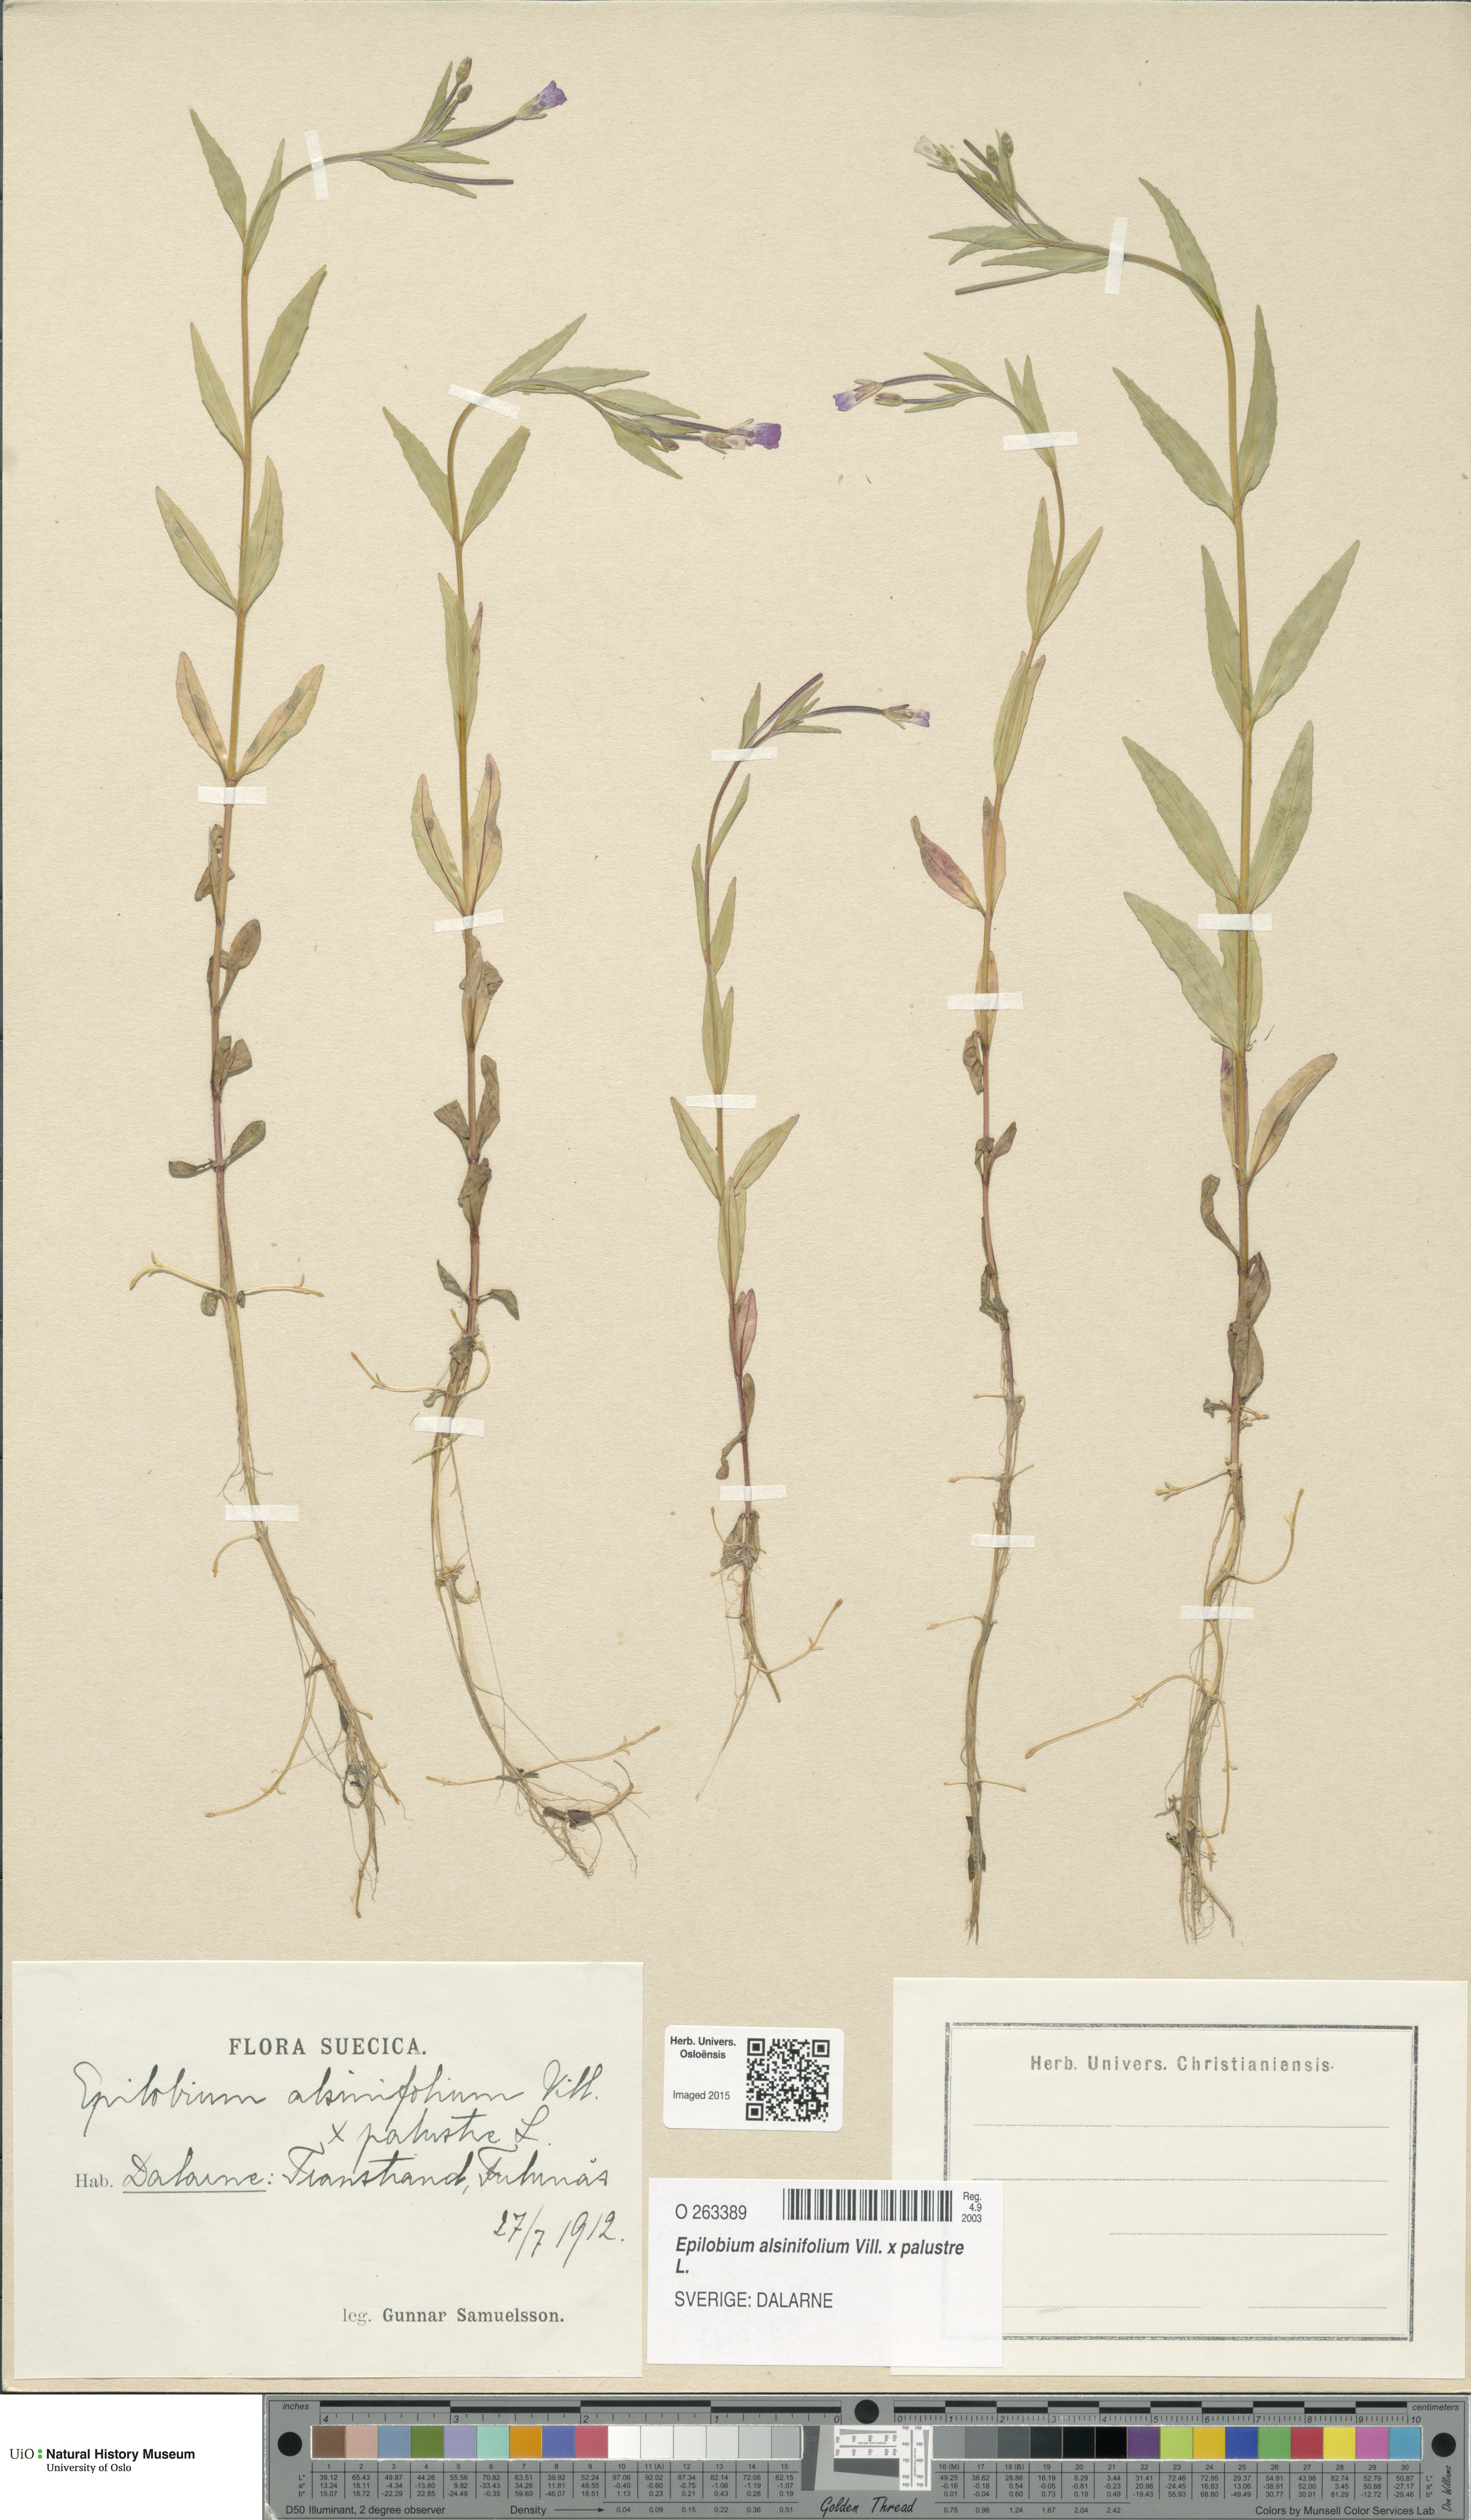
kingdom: Plantae
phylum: Tracheophyta
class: Magnoliopsida
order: Myrtales
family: Onagraceae
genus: Epilobium
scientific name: Epilobium
